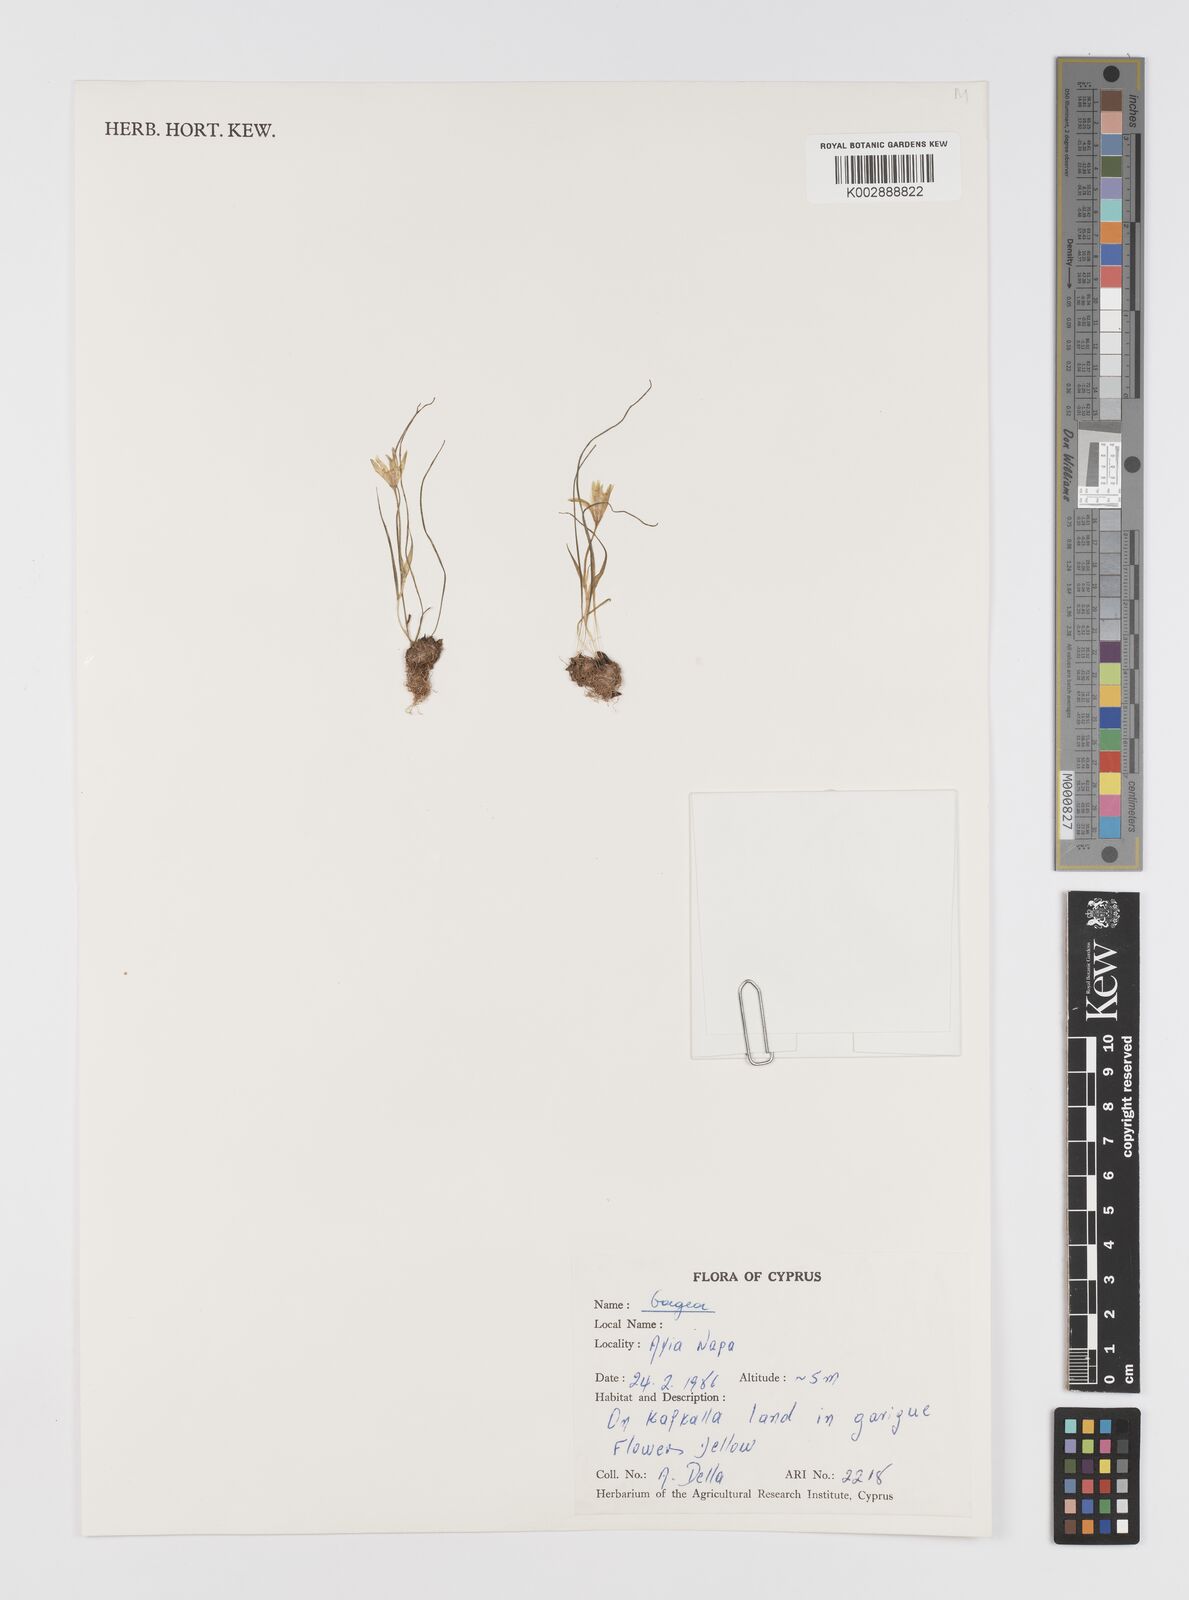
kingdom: Plantae
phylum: Tracheophyta
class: Liliopsida
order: Liliales
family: Liliaceae
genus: Gagea
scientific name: Gagea
